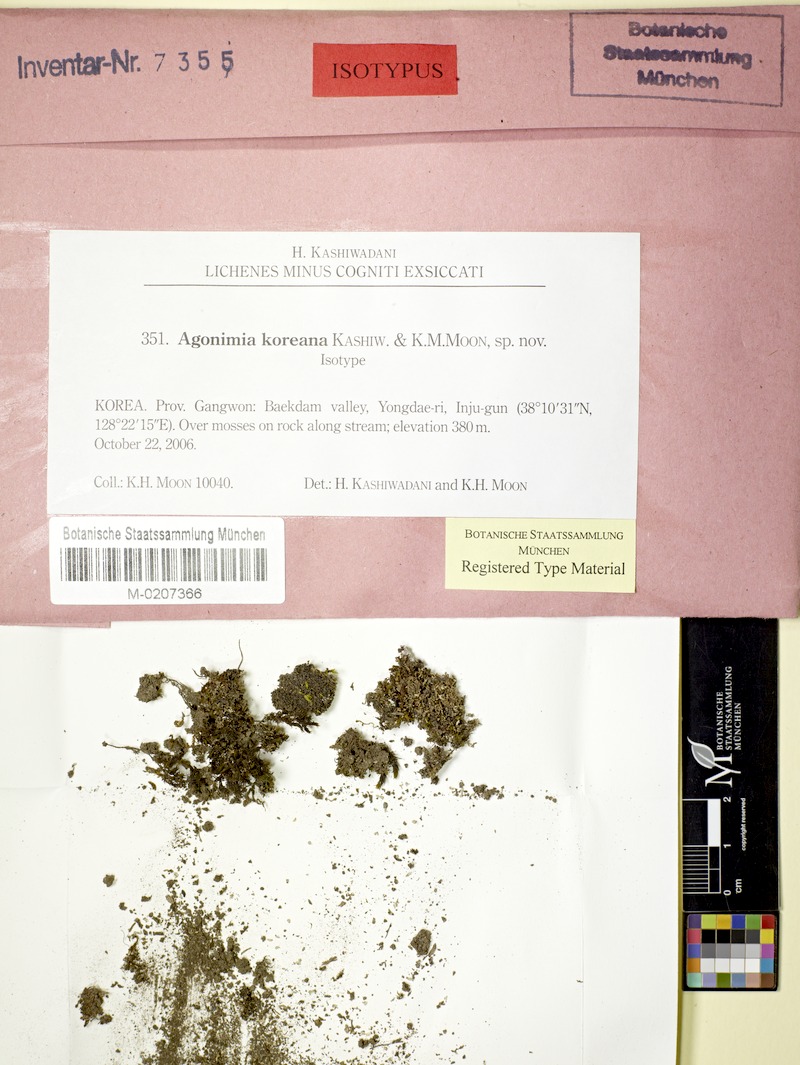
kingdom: Fungi
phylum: Ascomycota
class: Eurotiomycetes
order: Verrucariales
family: Verrucariaceae
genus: Agonimia
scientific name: Agonimia koreana
